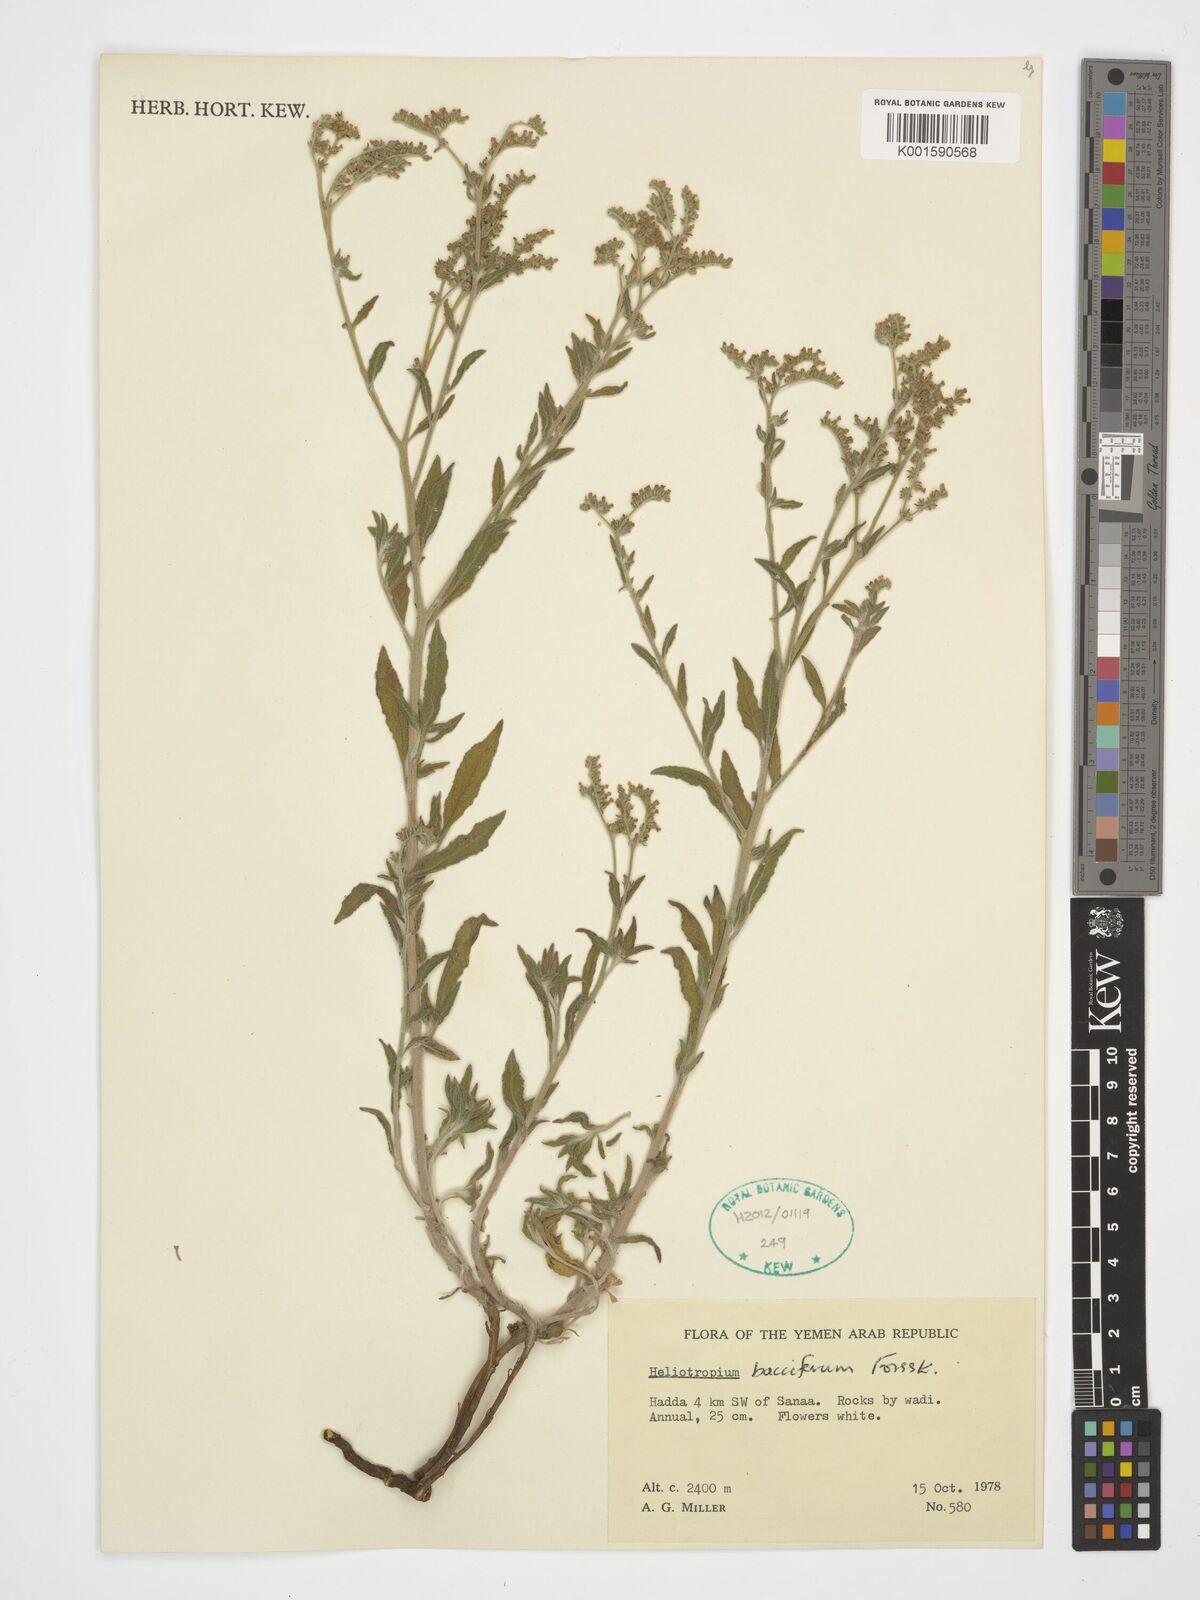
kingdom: Plantae
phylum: Tracheophyta
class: Magnoliopsida
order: Boraginales
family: Heliotropiaceae
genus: Heliotropium
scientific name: Heliotropium bacciferum
